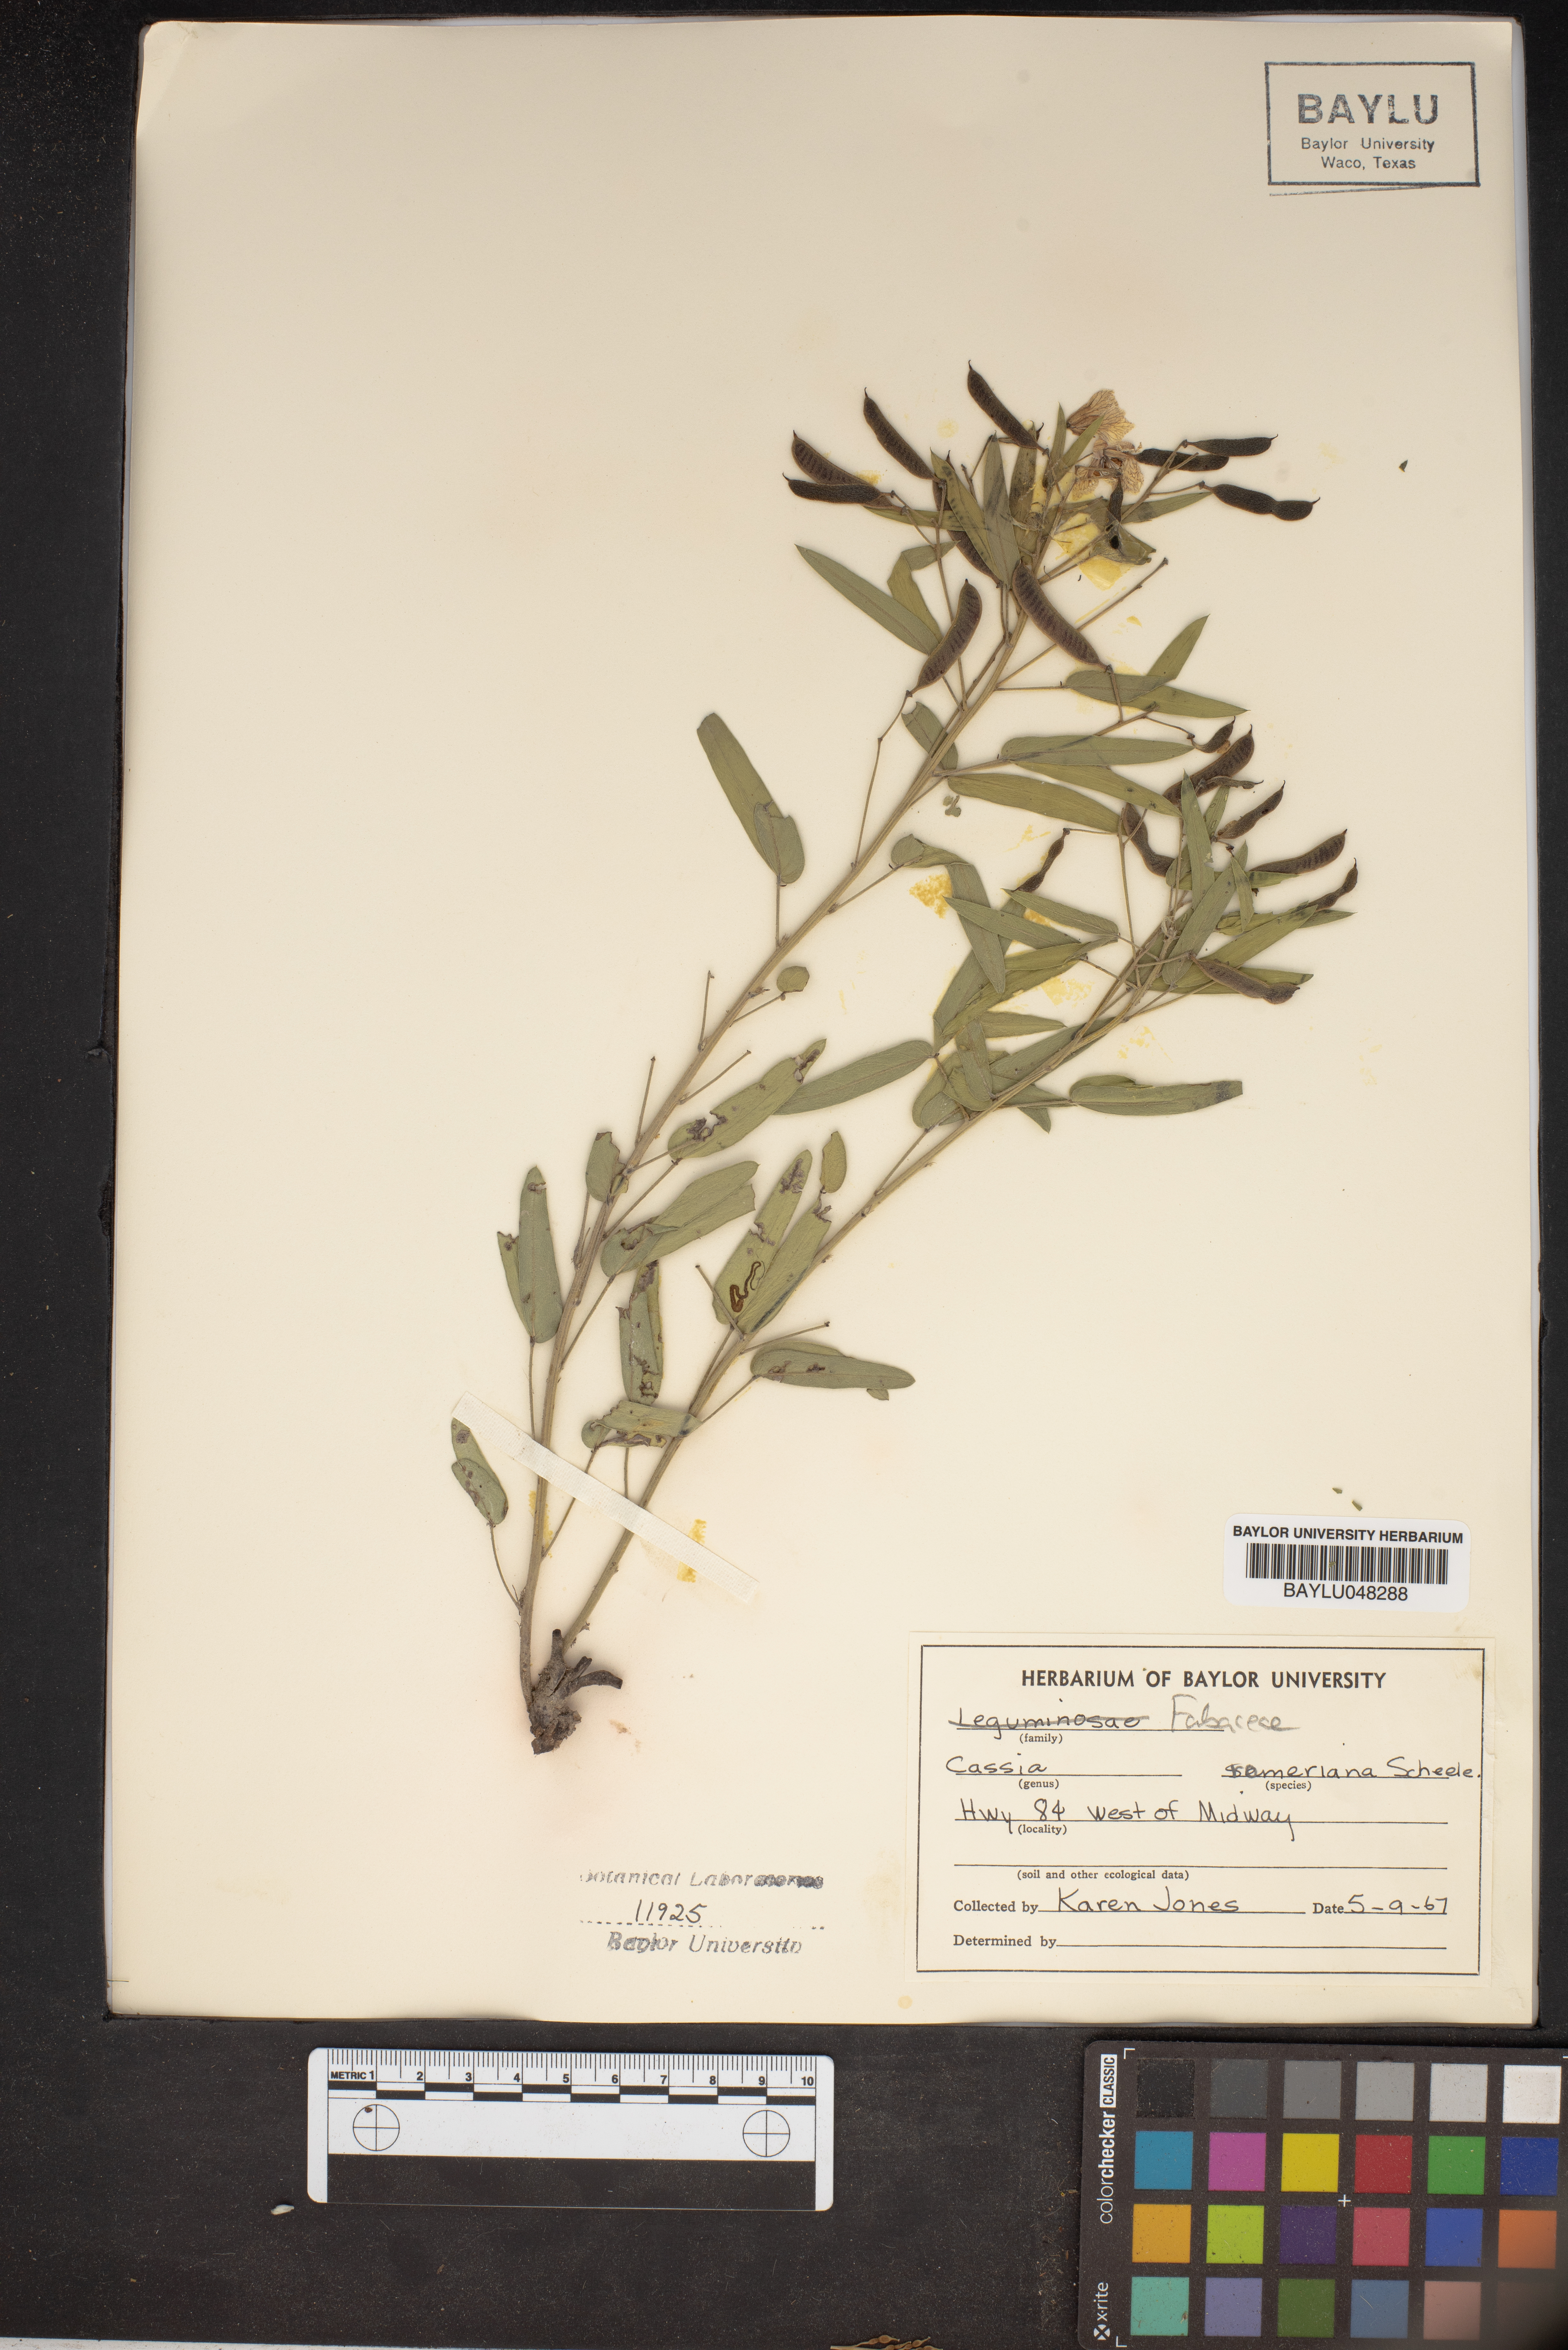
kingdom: Plantae
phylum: Tracheophyta
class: Magnoliopsida
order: Fabales
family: Fabaceae
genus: Senna
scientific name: Senna roemeriana
